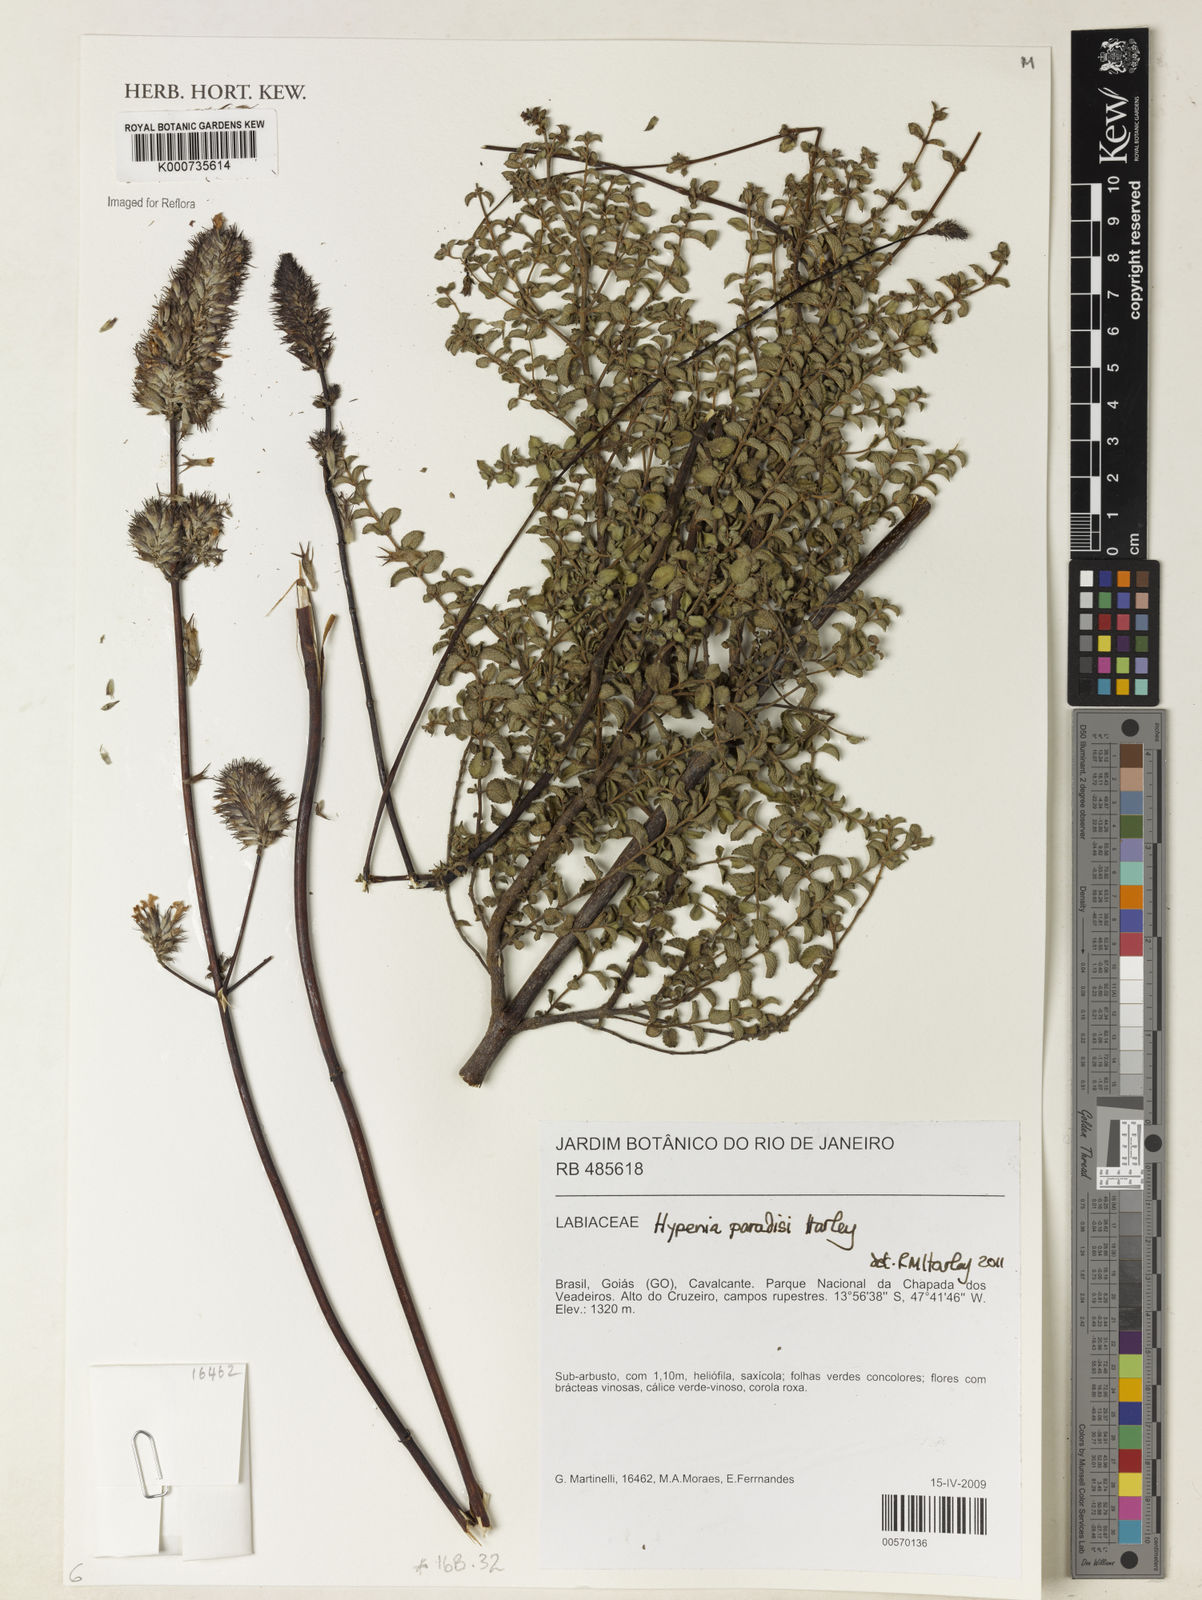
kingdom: Plantae
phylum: Tracheophyta
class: Magnoliopsida
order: Lamiales
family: Lamiaceae
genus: Hypenia
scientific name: Hypenia paradisi
